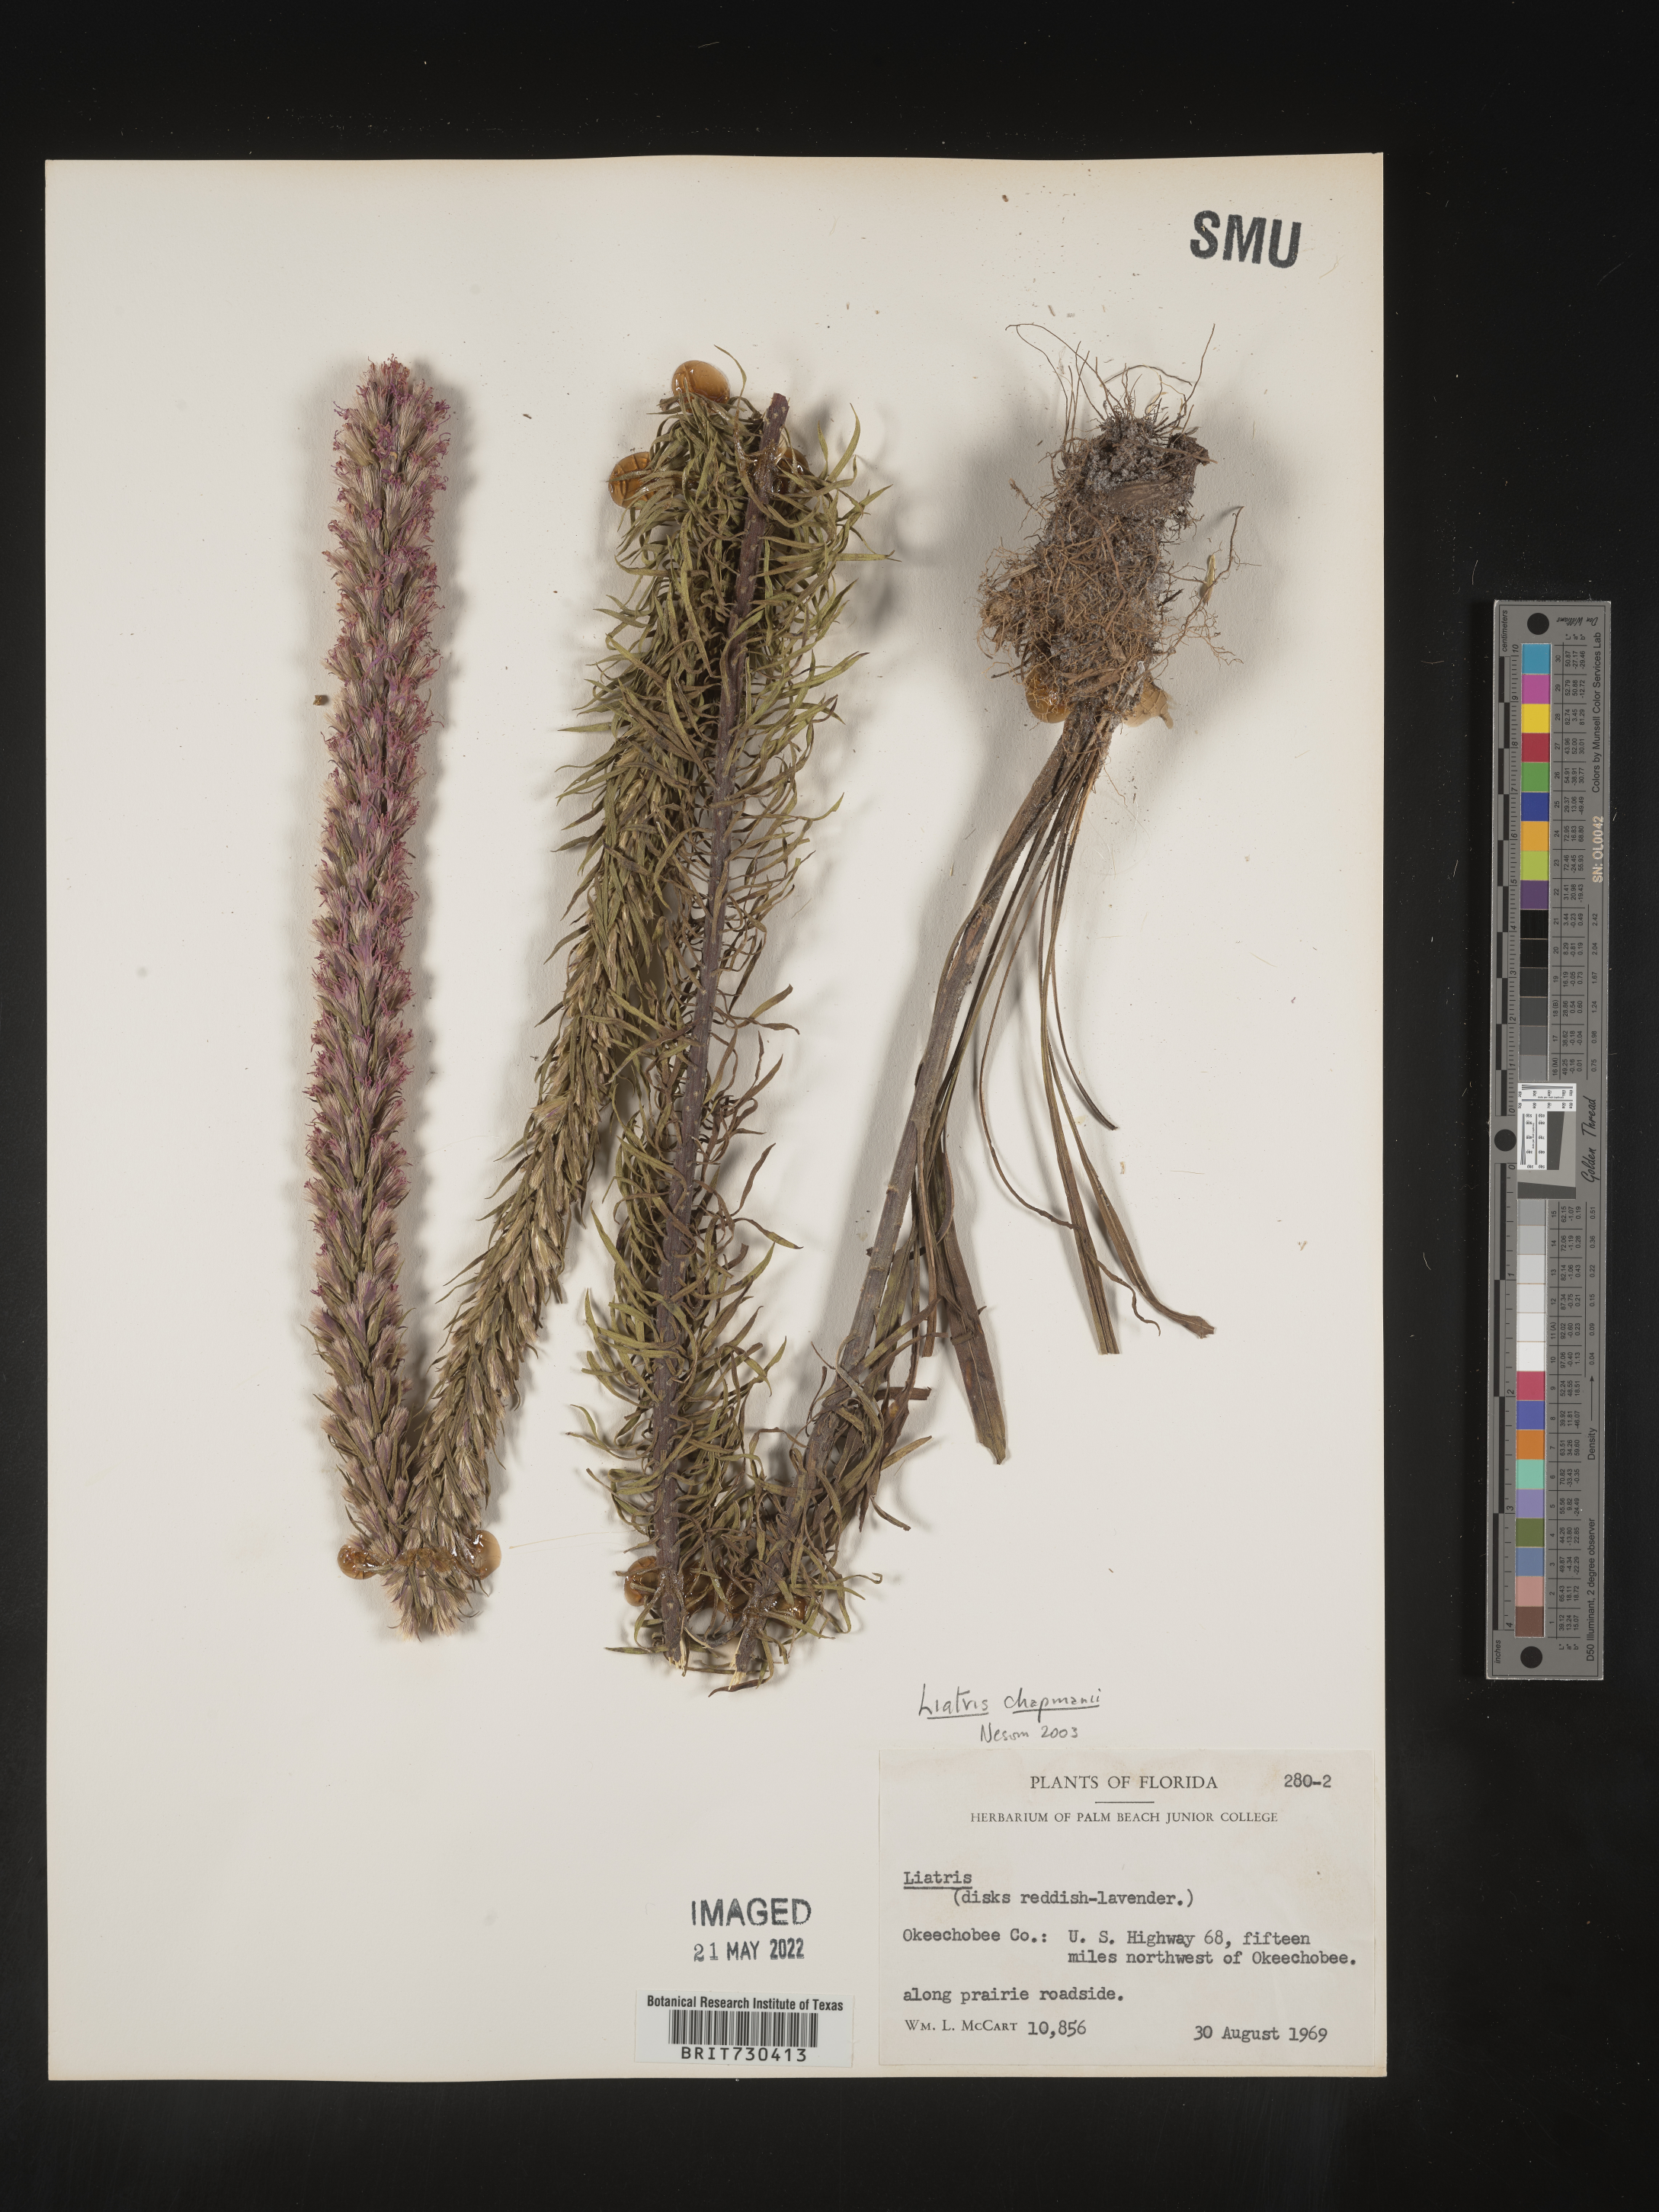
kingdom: Plantae
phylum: Tracheophyta
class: Magnoliopsida
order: Asterales
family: Asteraceae
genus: Liatris
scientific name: Liatris chapmanii
